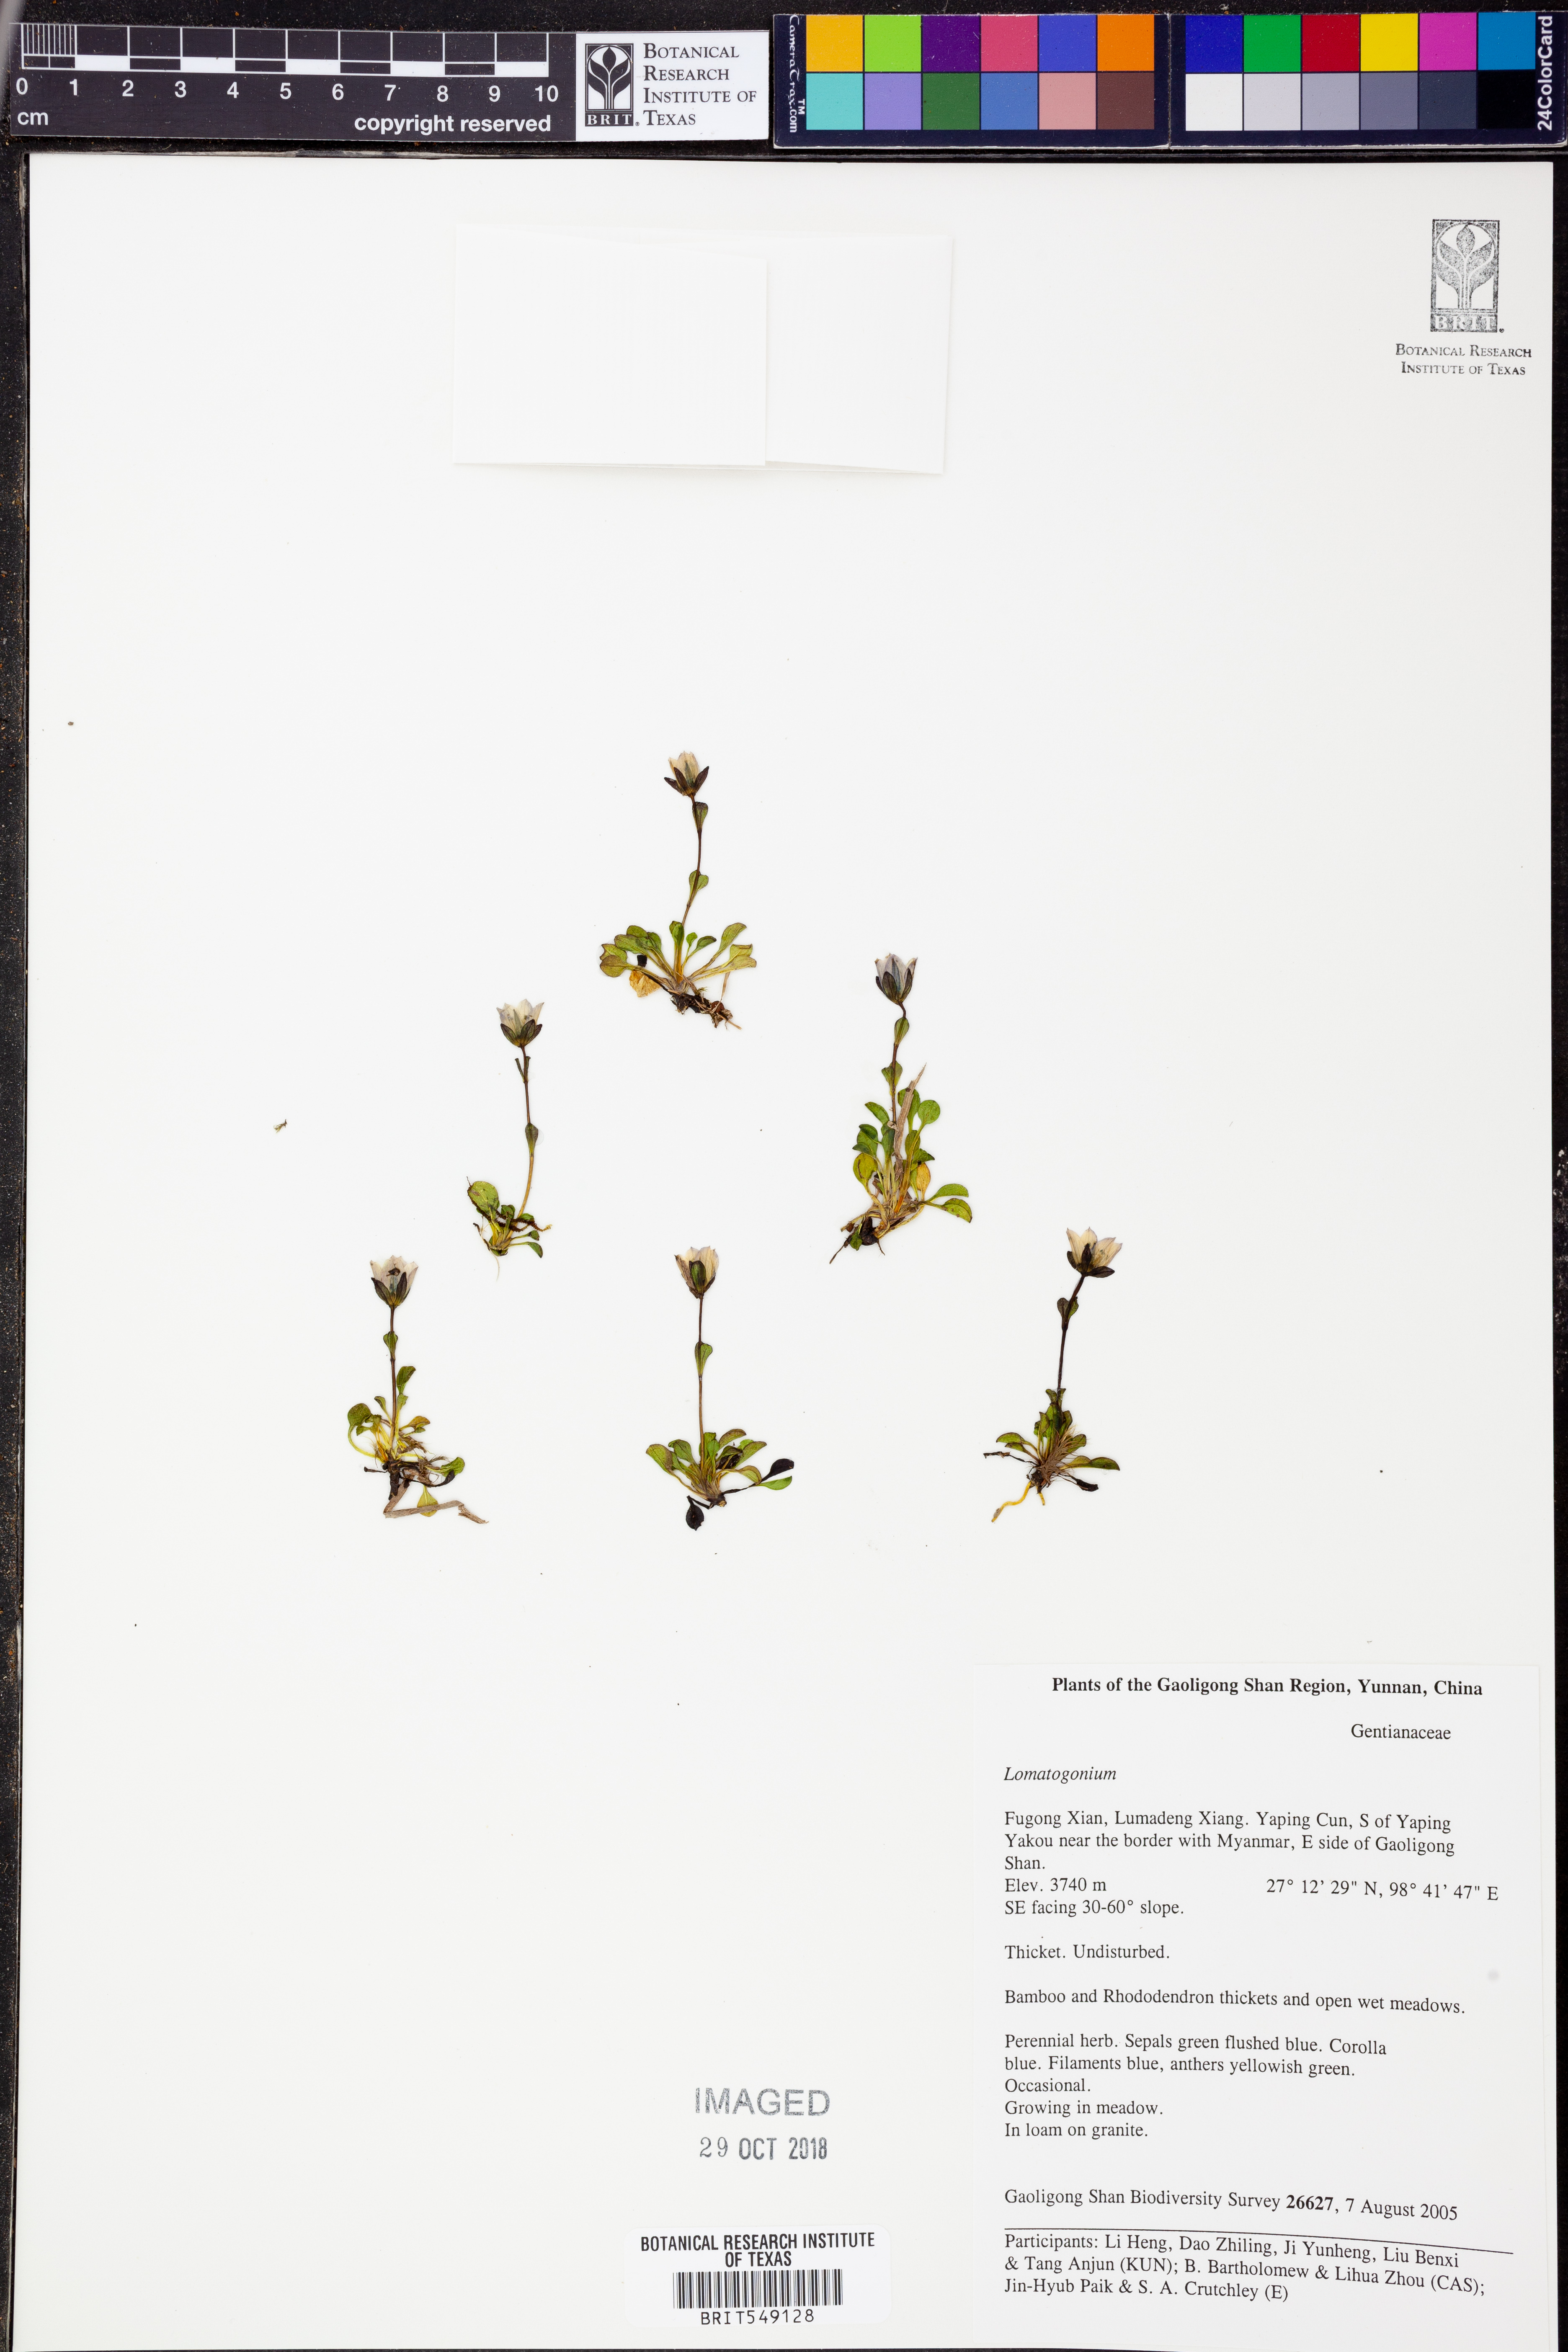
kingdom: Plantae
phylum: Tracheophyta
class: Magnoliopsida
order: Gentianales
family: Gentianaceae
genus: Lomatogonium
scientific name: Lomatogonium
